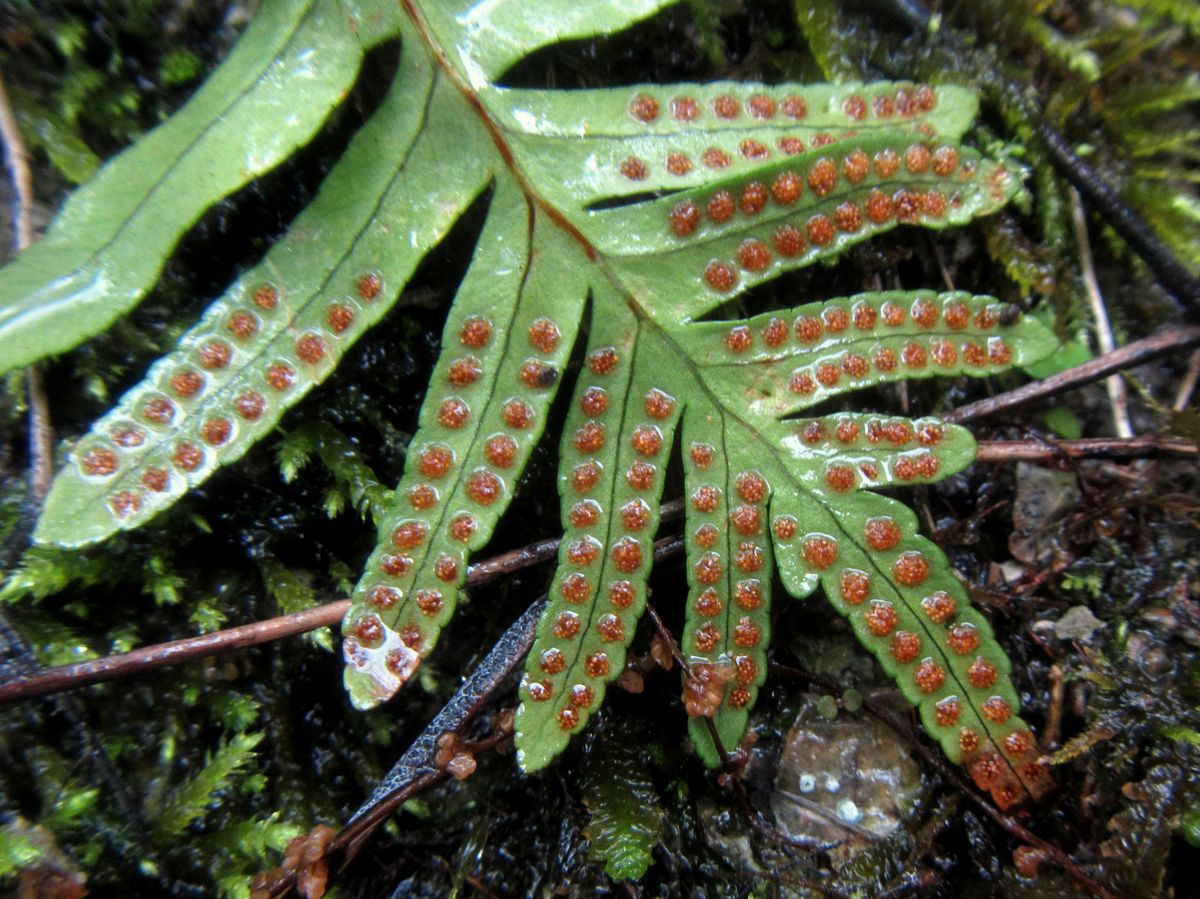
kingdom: Plantae
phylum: Tracheophyta
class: Polypodiopsida
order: Polypodiales
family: Polypodiaceae
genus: Polypodium
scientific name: Polypodium vulgare
